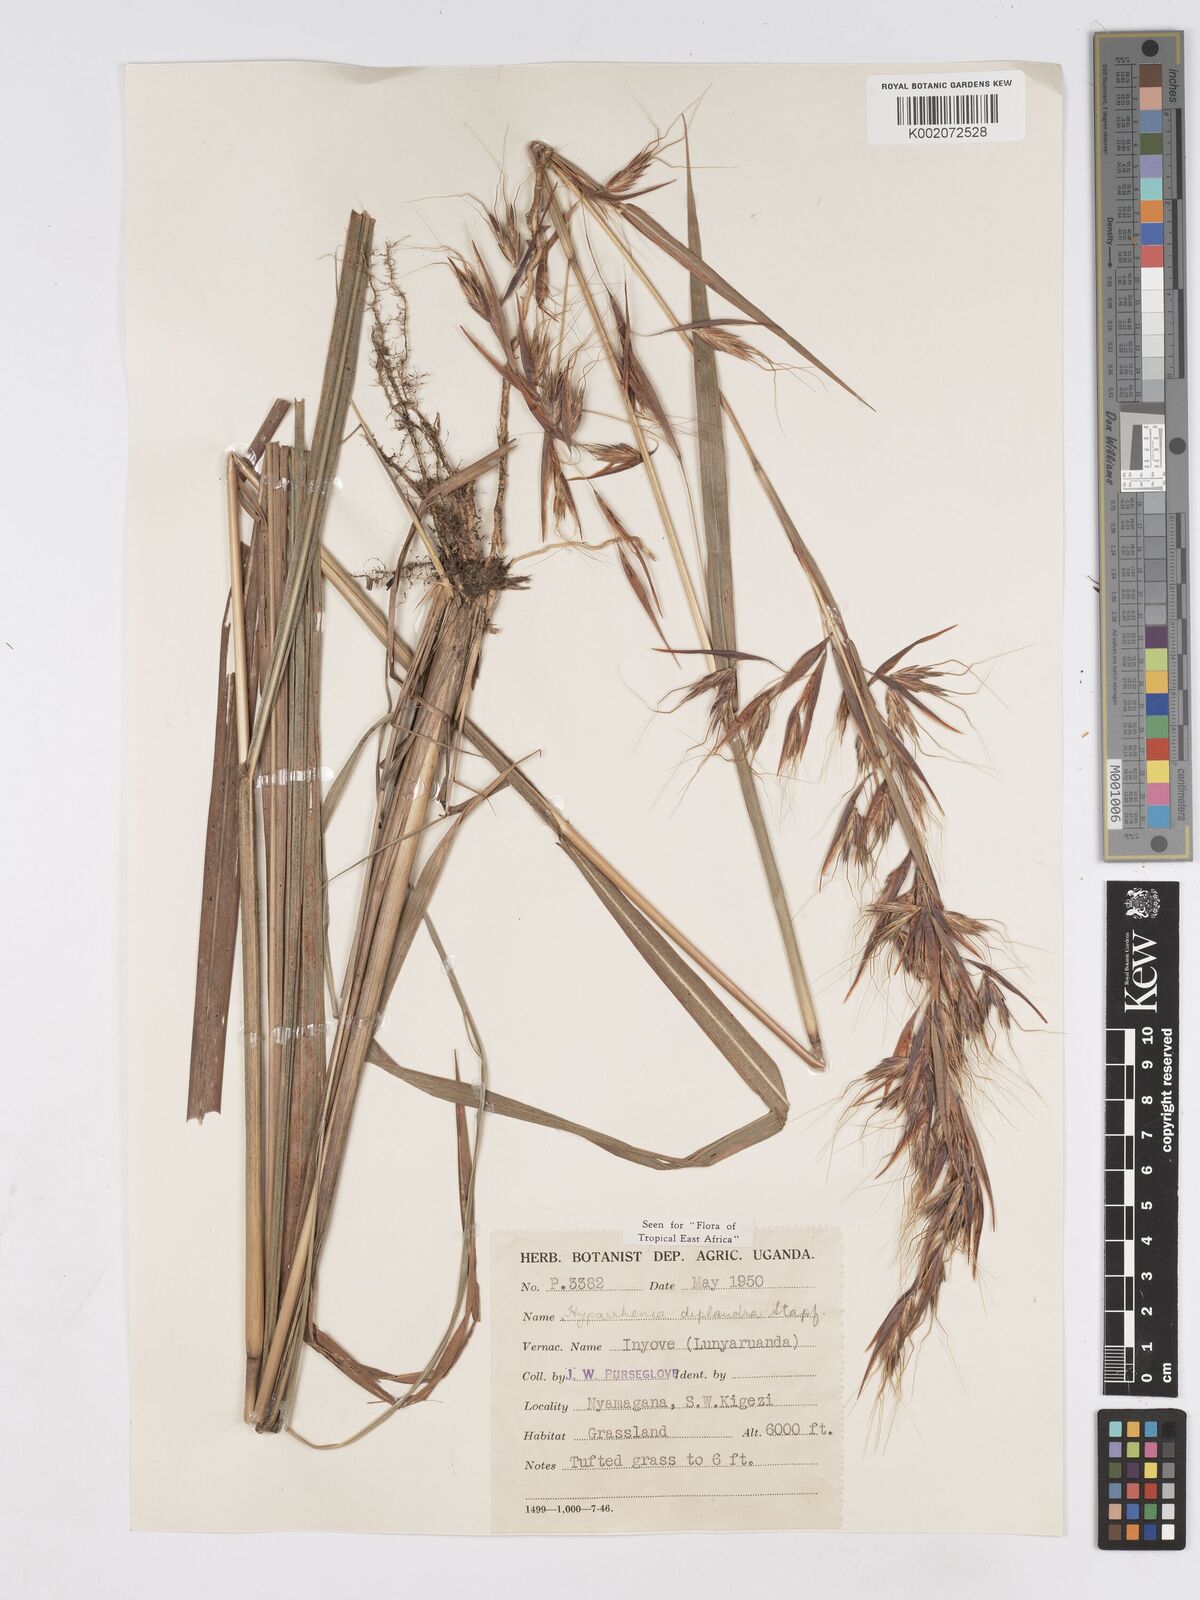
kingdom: Plantae
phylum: Tracheophyta
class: Liliopsida
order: Poales
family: Poaceae
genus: Hyparrhenia
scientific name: Hyparrhenia
